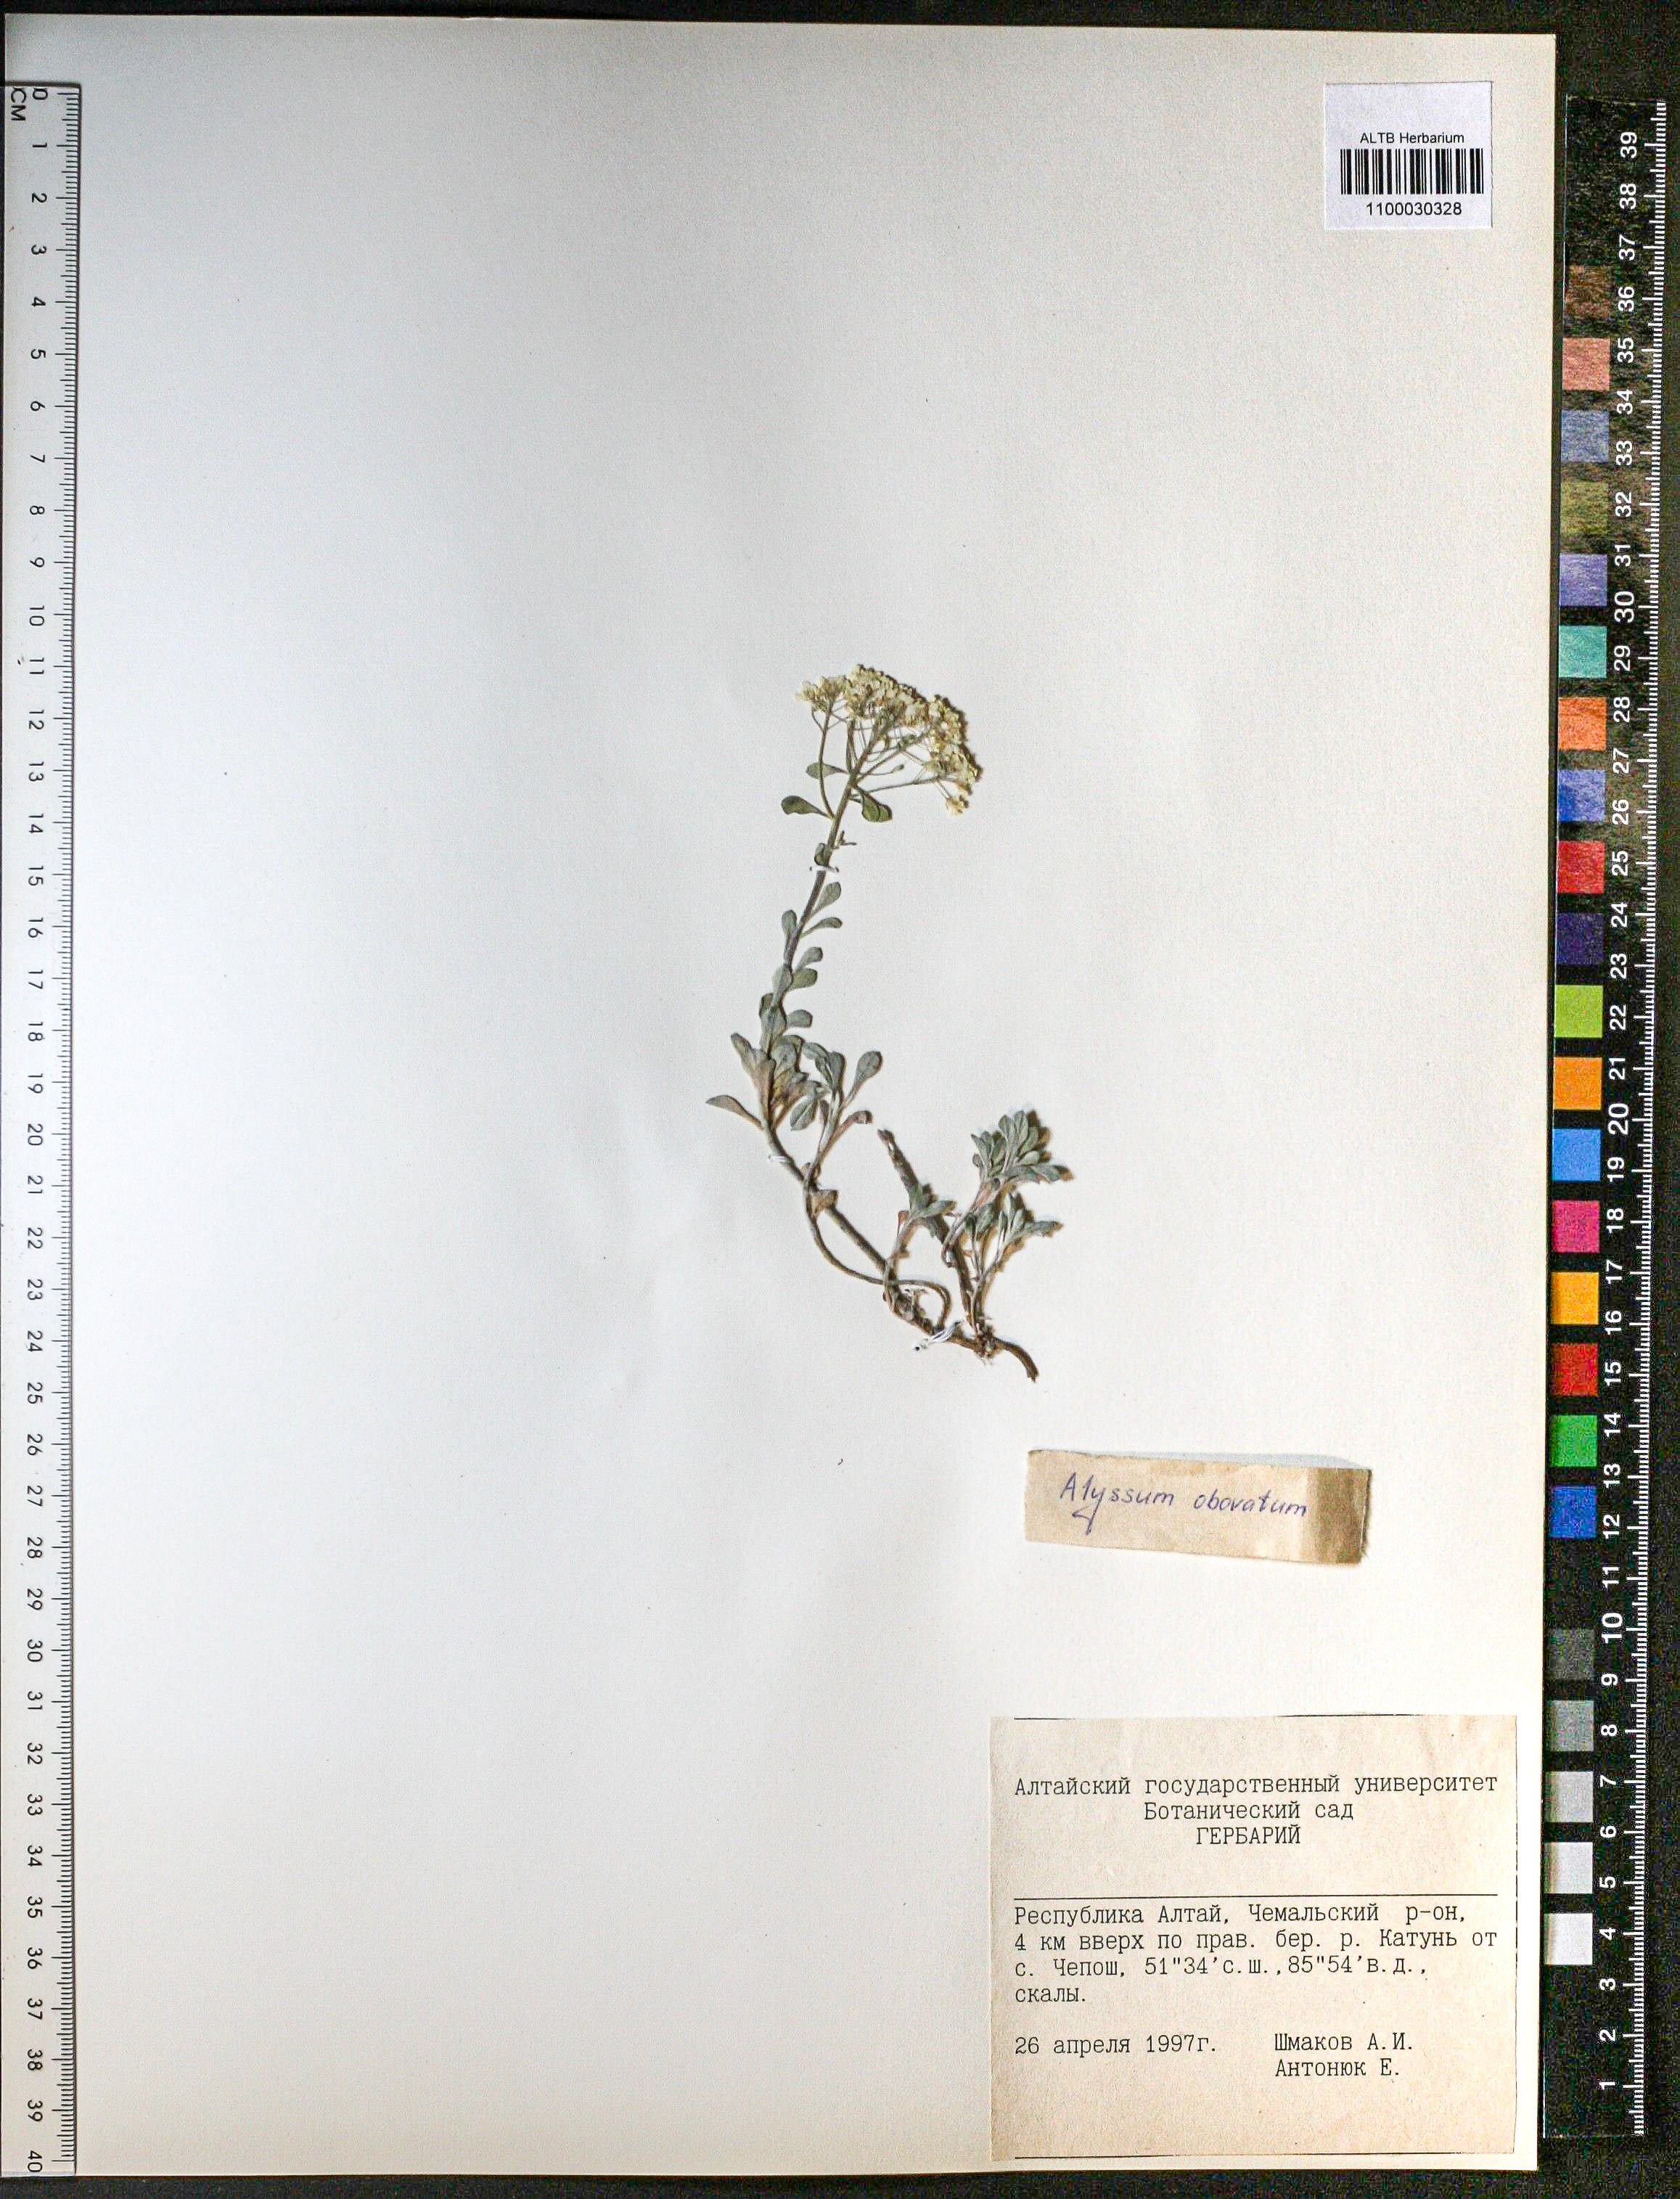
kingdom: Plantae
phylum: Tracheophyta
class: Magnoliopsida
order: Brassicales
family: Brassicaceae
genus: Odontarrhena
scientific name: Odontarrhena obovata
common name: American alyssum
